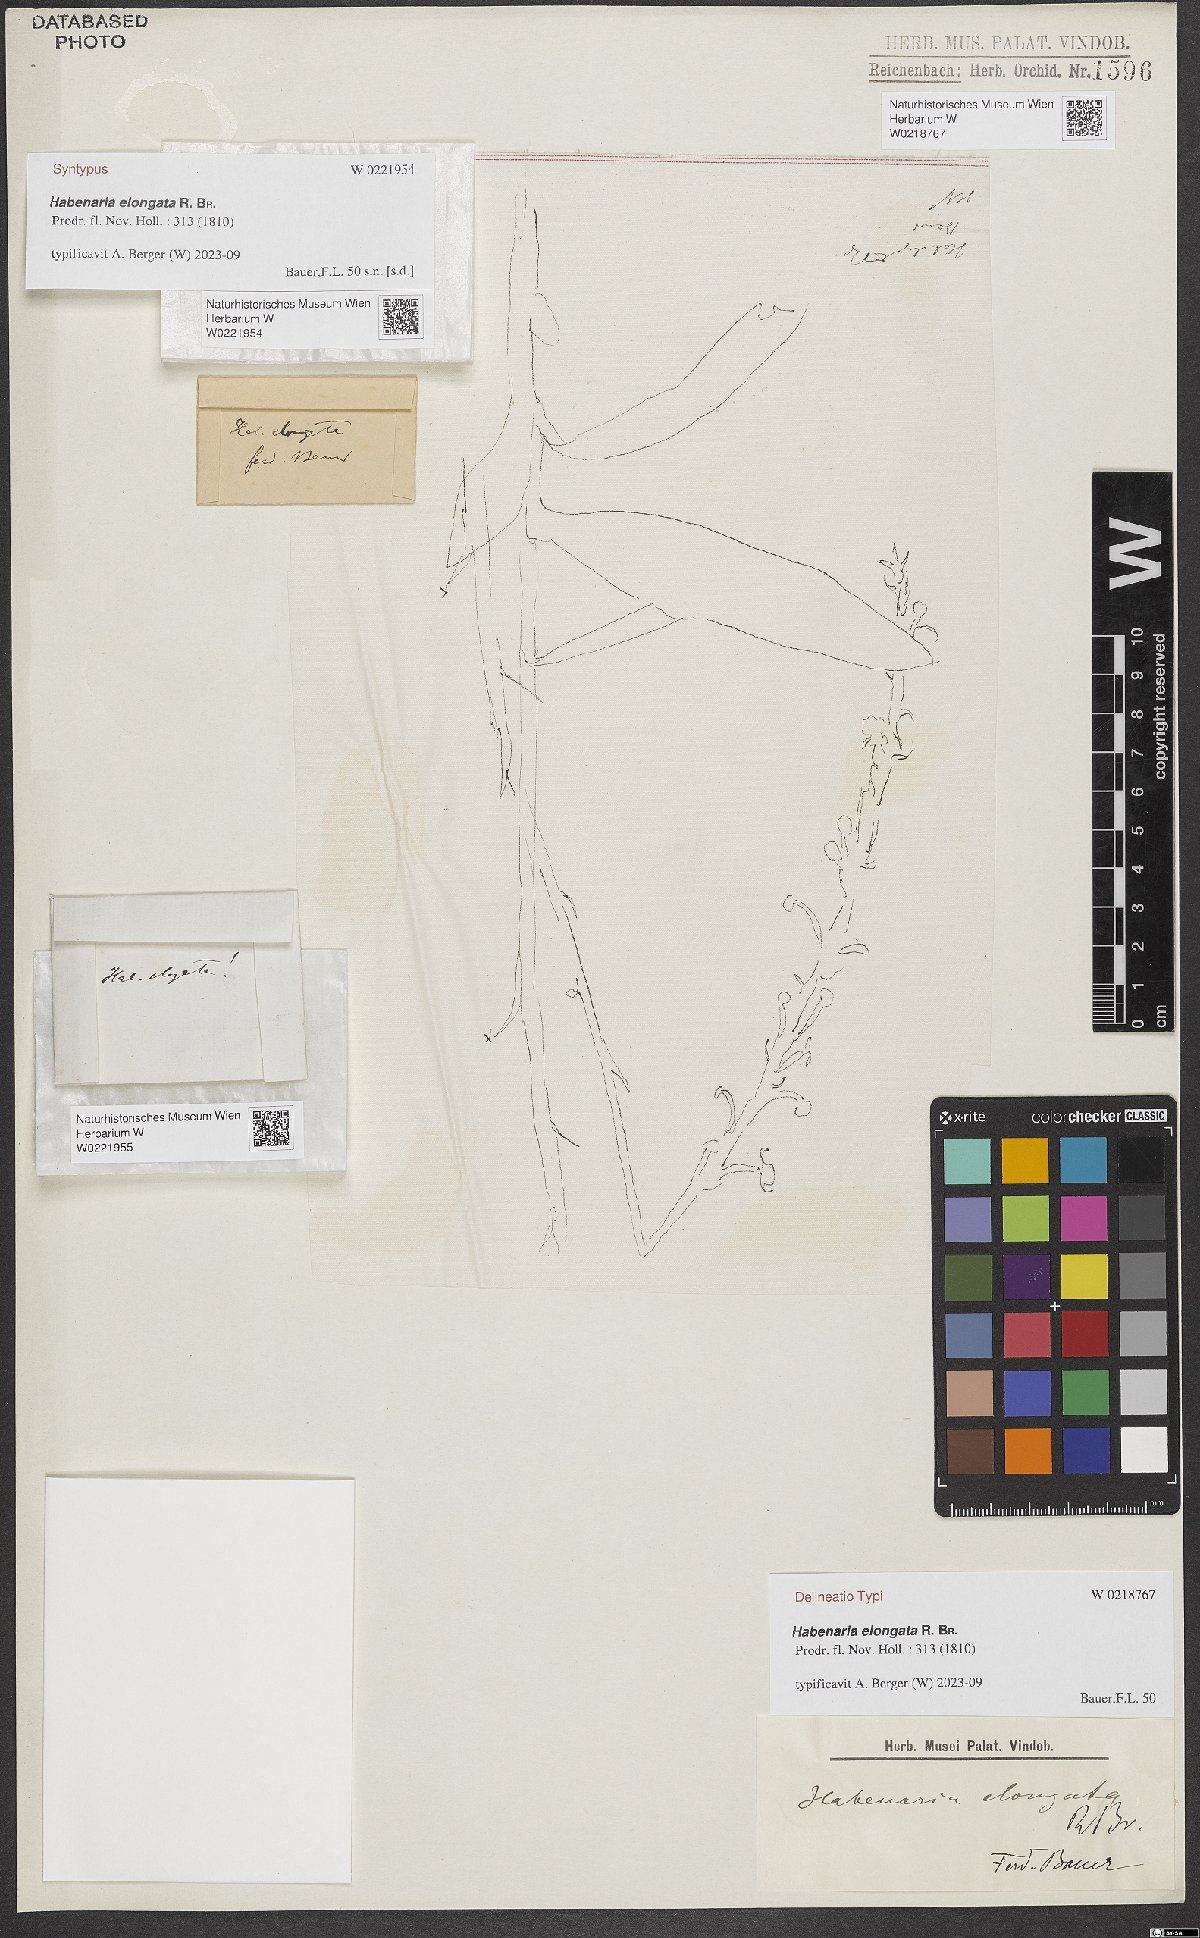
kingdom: Plantae
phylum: Tracheophyta
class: Liliopsida
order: Asparagales
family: Orchidaceae
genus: Habenaria
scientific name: Habenaria elongata
